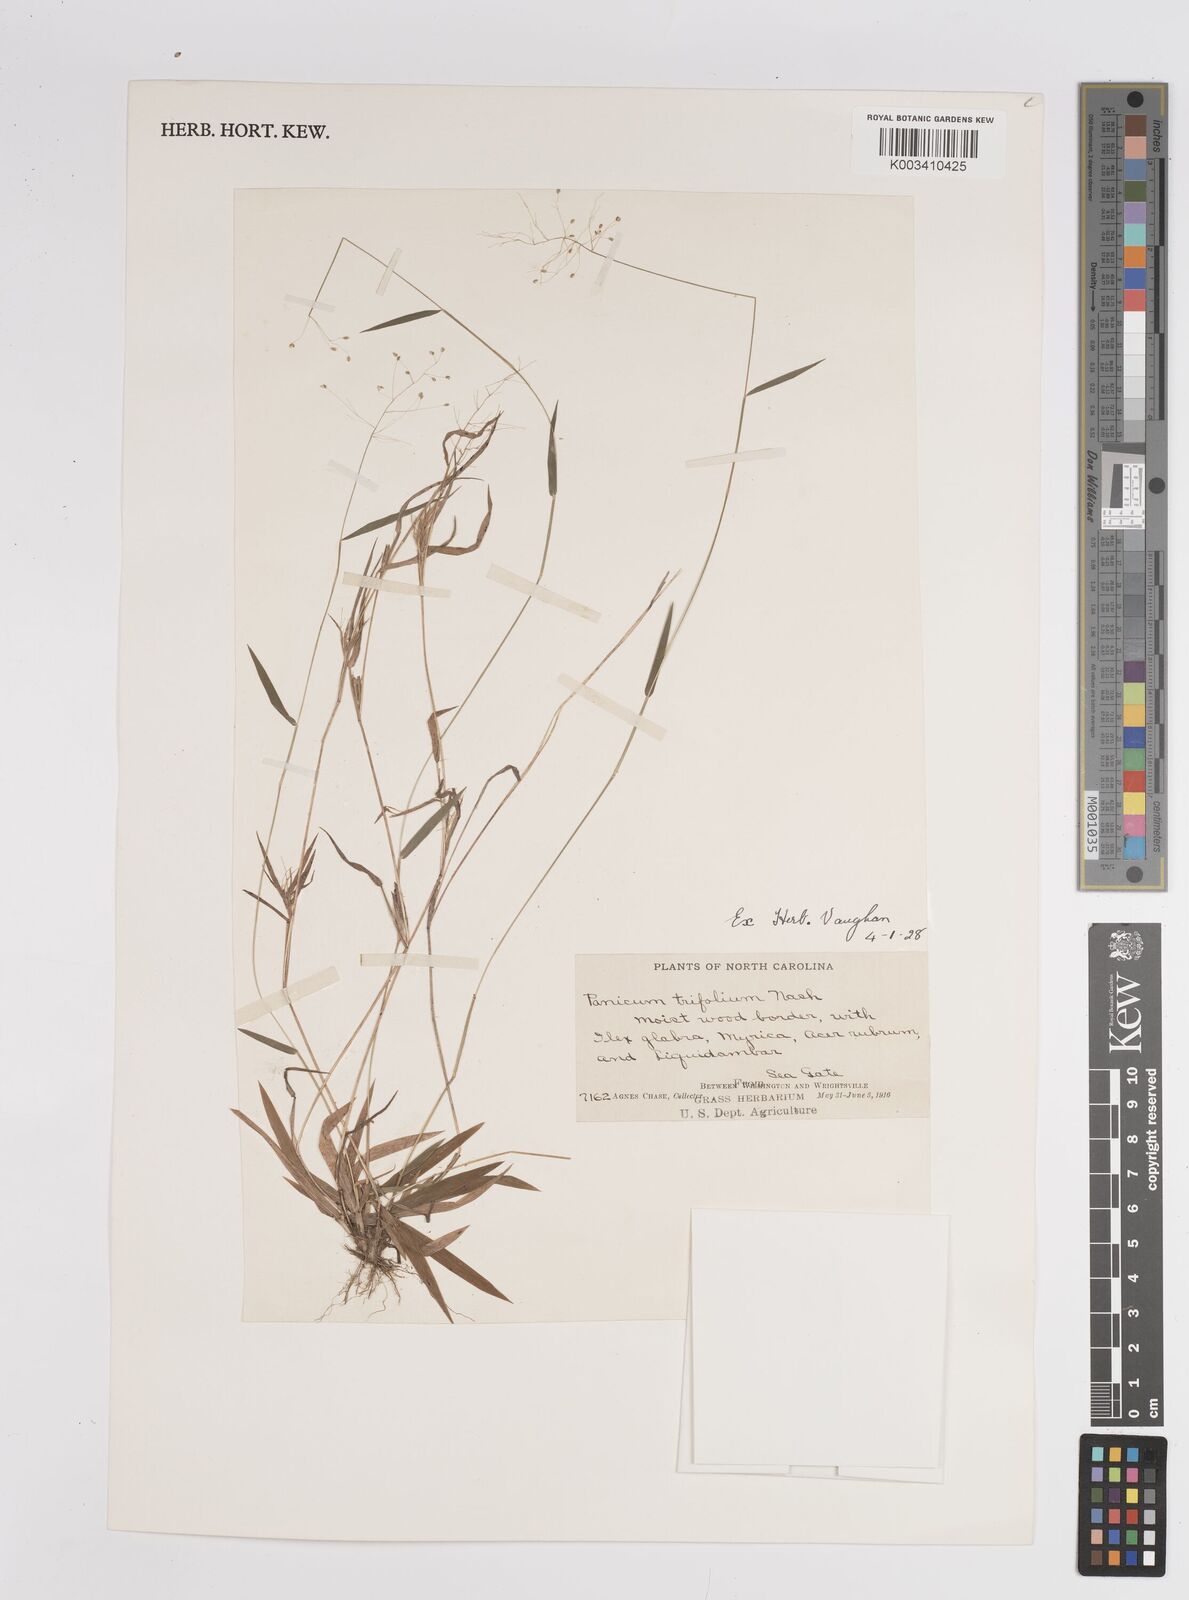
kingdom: Plantae
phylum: Tracheophyta
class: Liliopsida
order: Poales
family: Poaceae
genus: Dichanthelium
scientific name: Dichanthelium trifolium
